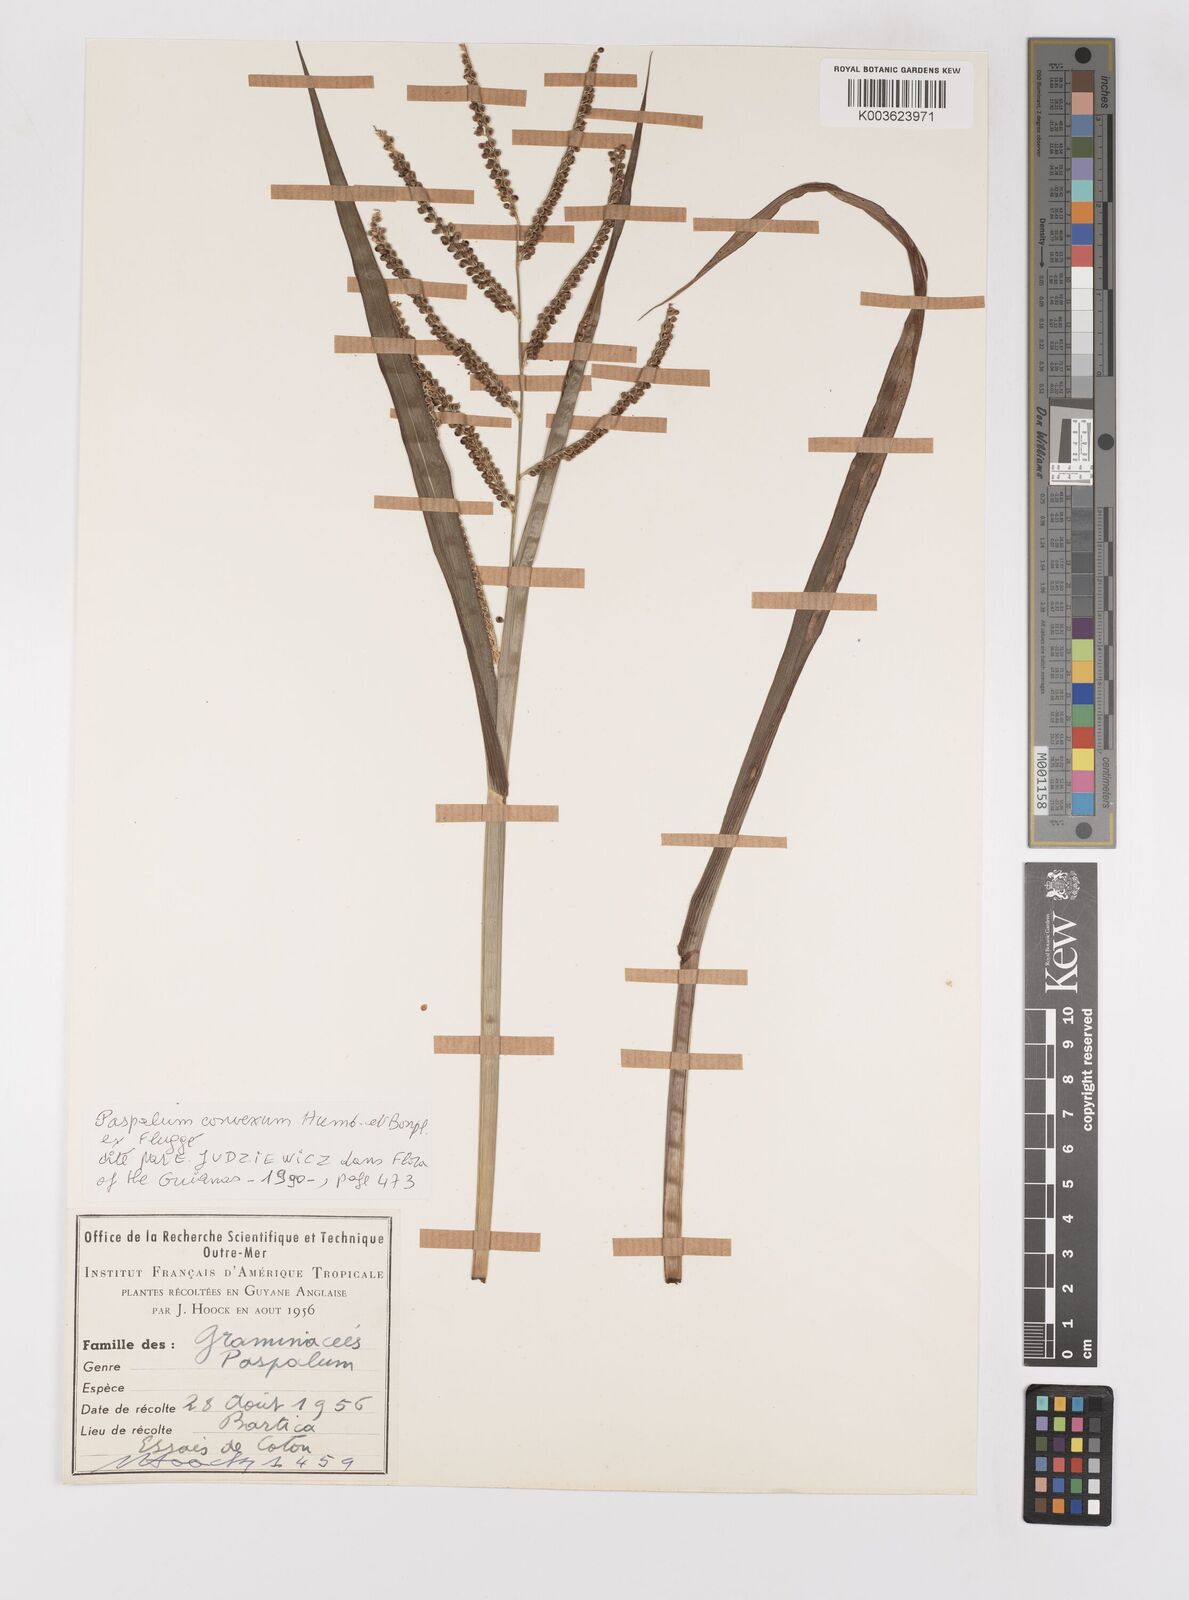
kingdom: Plantae
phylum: Tracheophyta
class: Liliopsida
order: Poales
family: Poaceae
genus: Paspalum
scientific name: Paspalum convexum
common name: Latin american crowngrass
